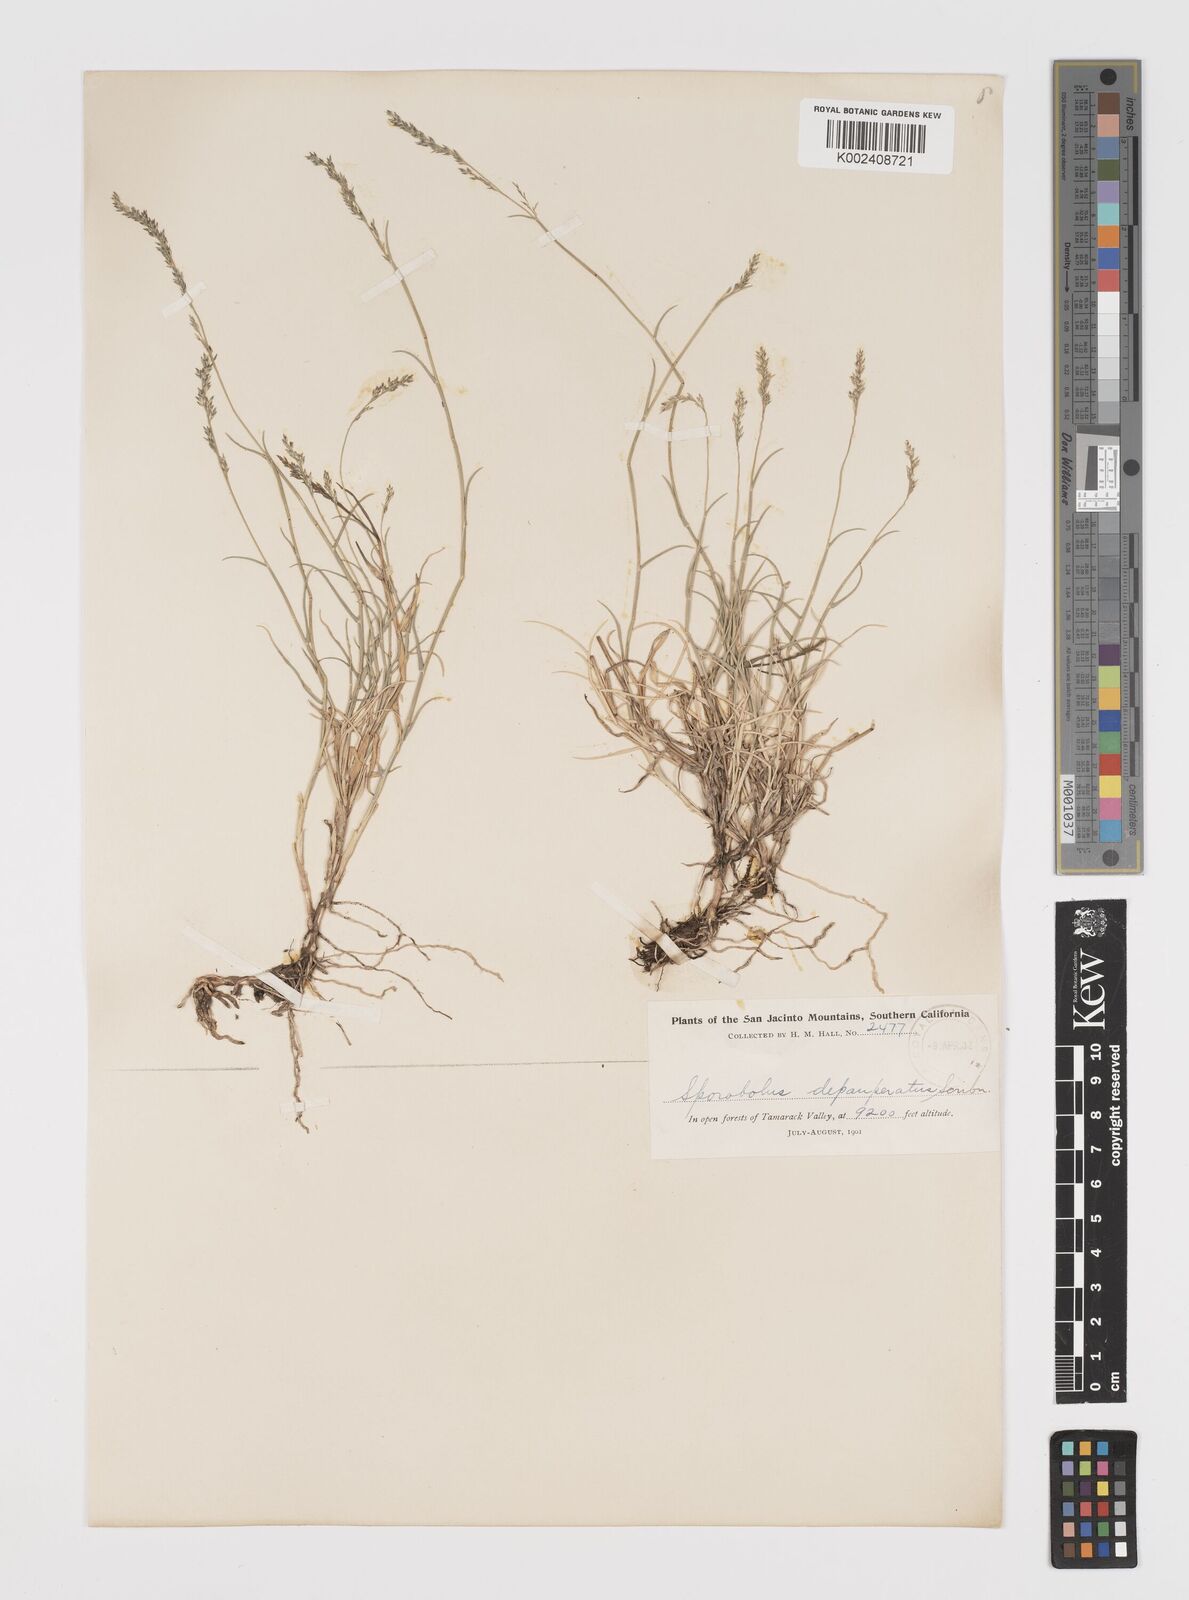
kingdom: Plantae
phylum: Tracheophyta
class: Liliopsida
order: Poales
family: Poaceae
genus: Muhlenbergia
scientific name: Muhlenbergia richardsonis
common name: Mat muhly
